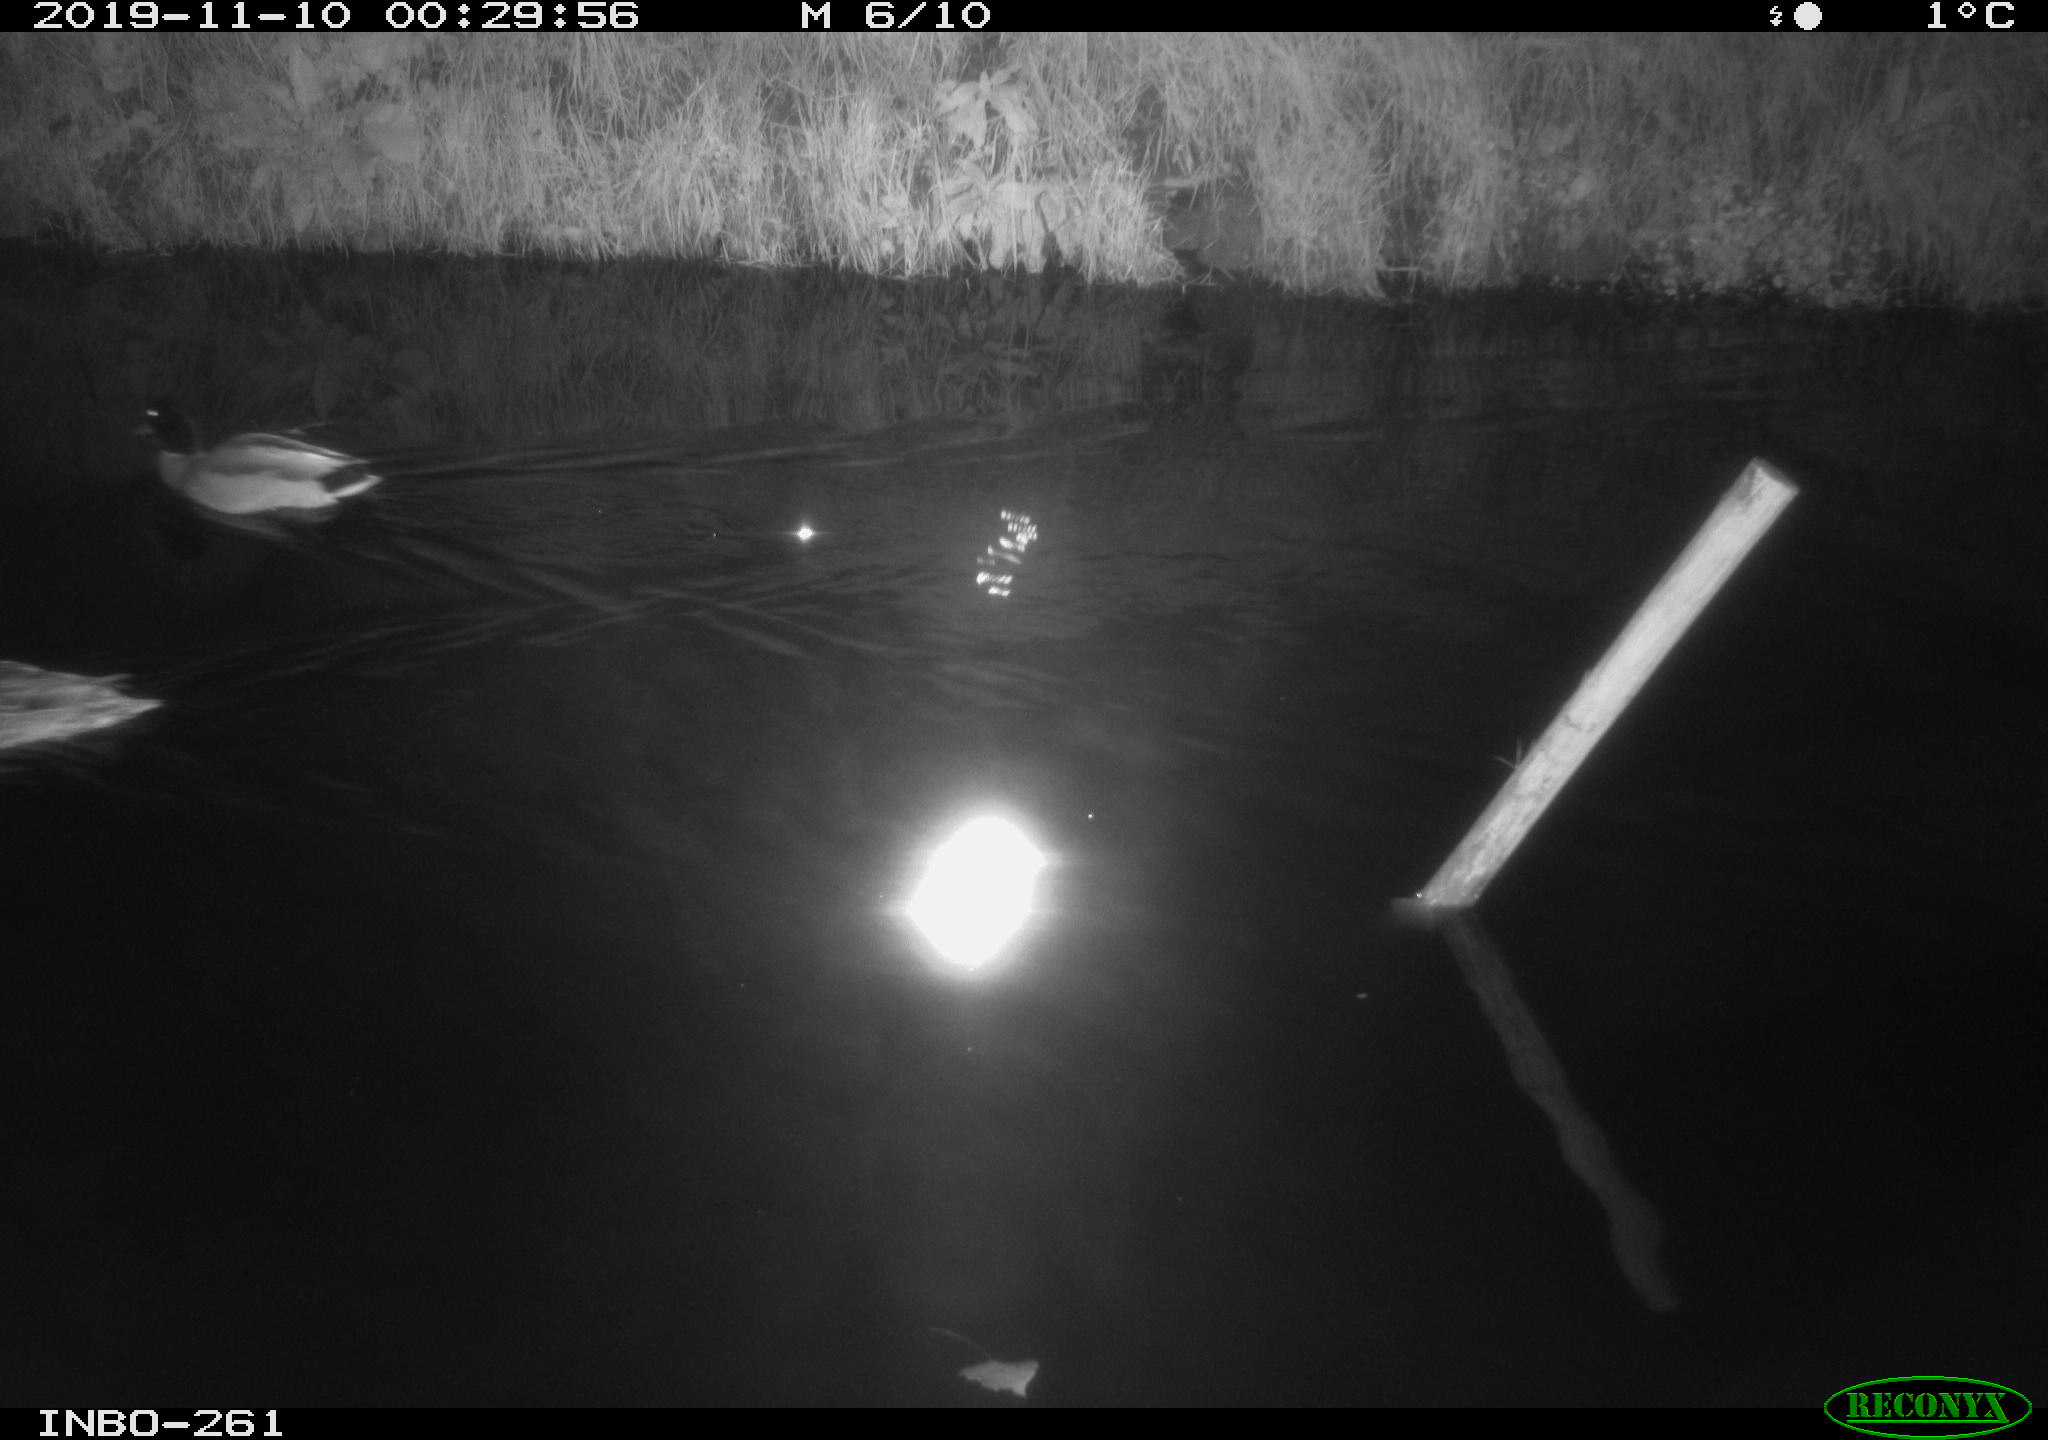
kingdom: Animalia
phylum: Chordata
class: Aves
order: Anseriformes
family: Anatidae
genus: Anas
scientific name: Anas platyrhynchos
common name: Mallard
